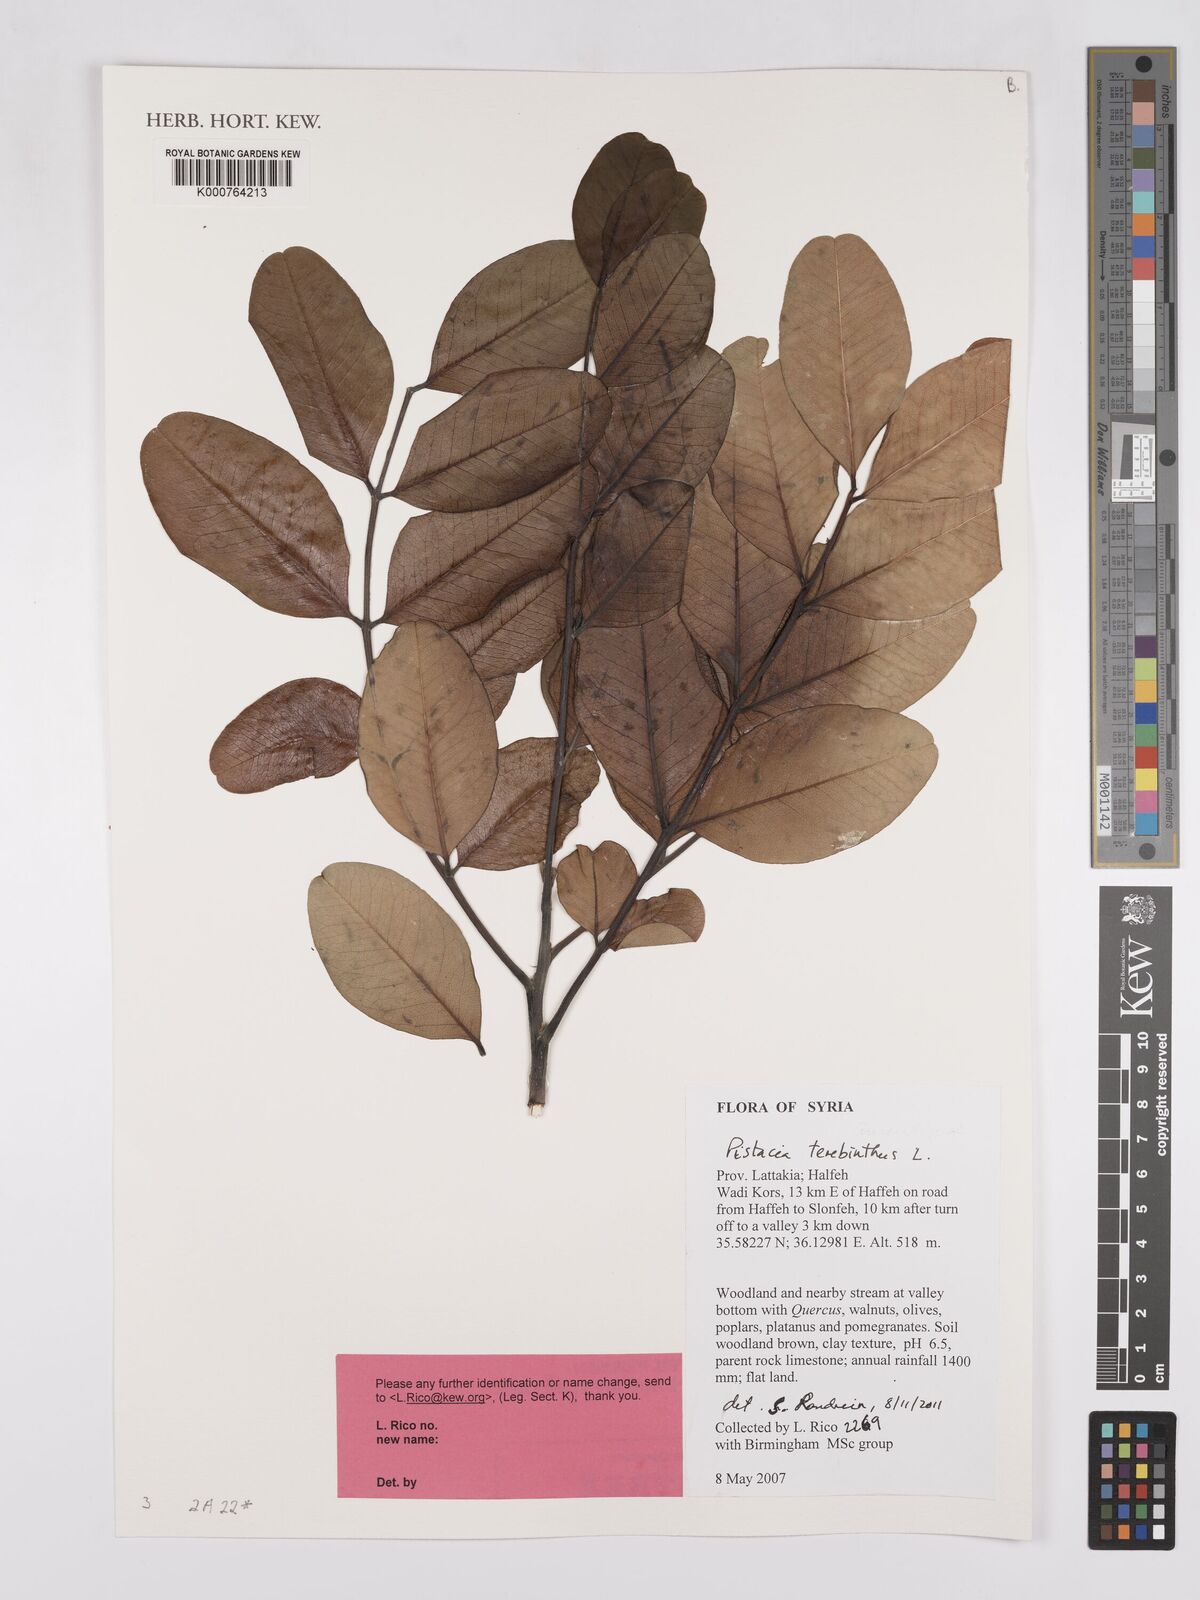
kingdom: Plantae
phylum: Tracheophyta
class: Magnoliopsida
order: Sapindales
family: Anacardiaceae
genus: Pistacia
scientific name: Pistacia terebinthus
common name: Terebinth
